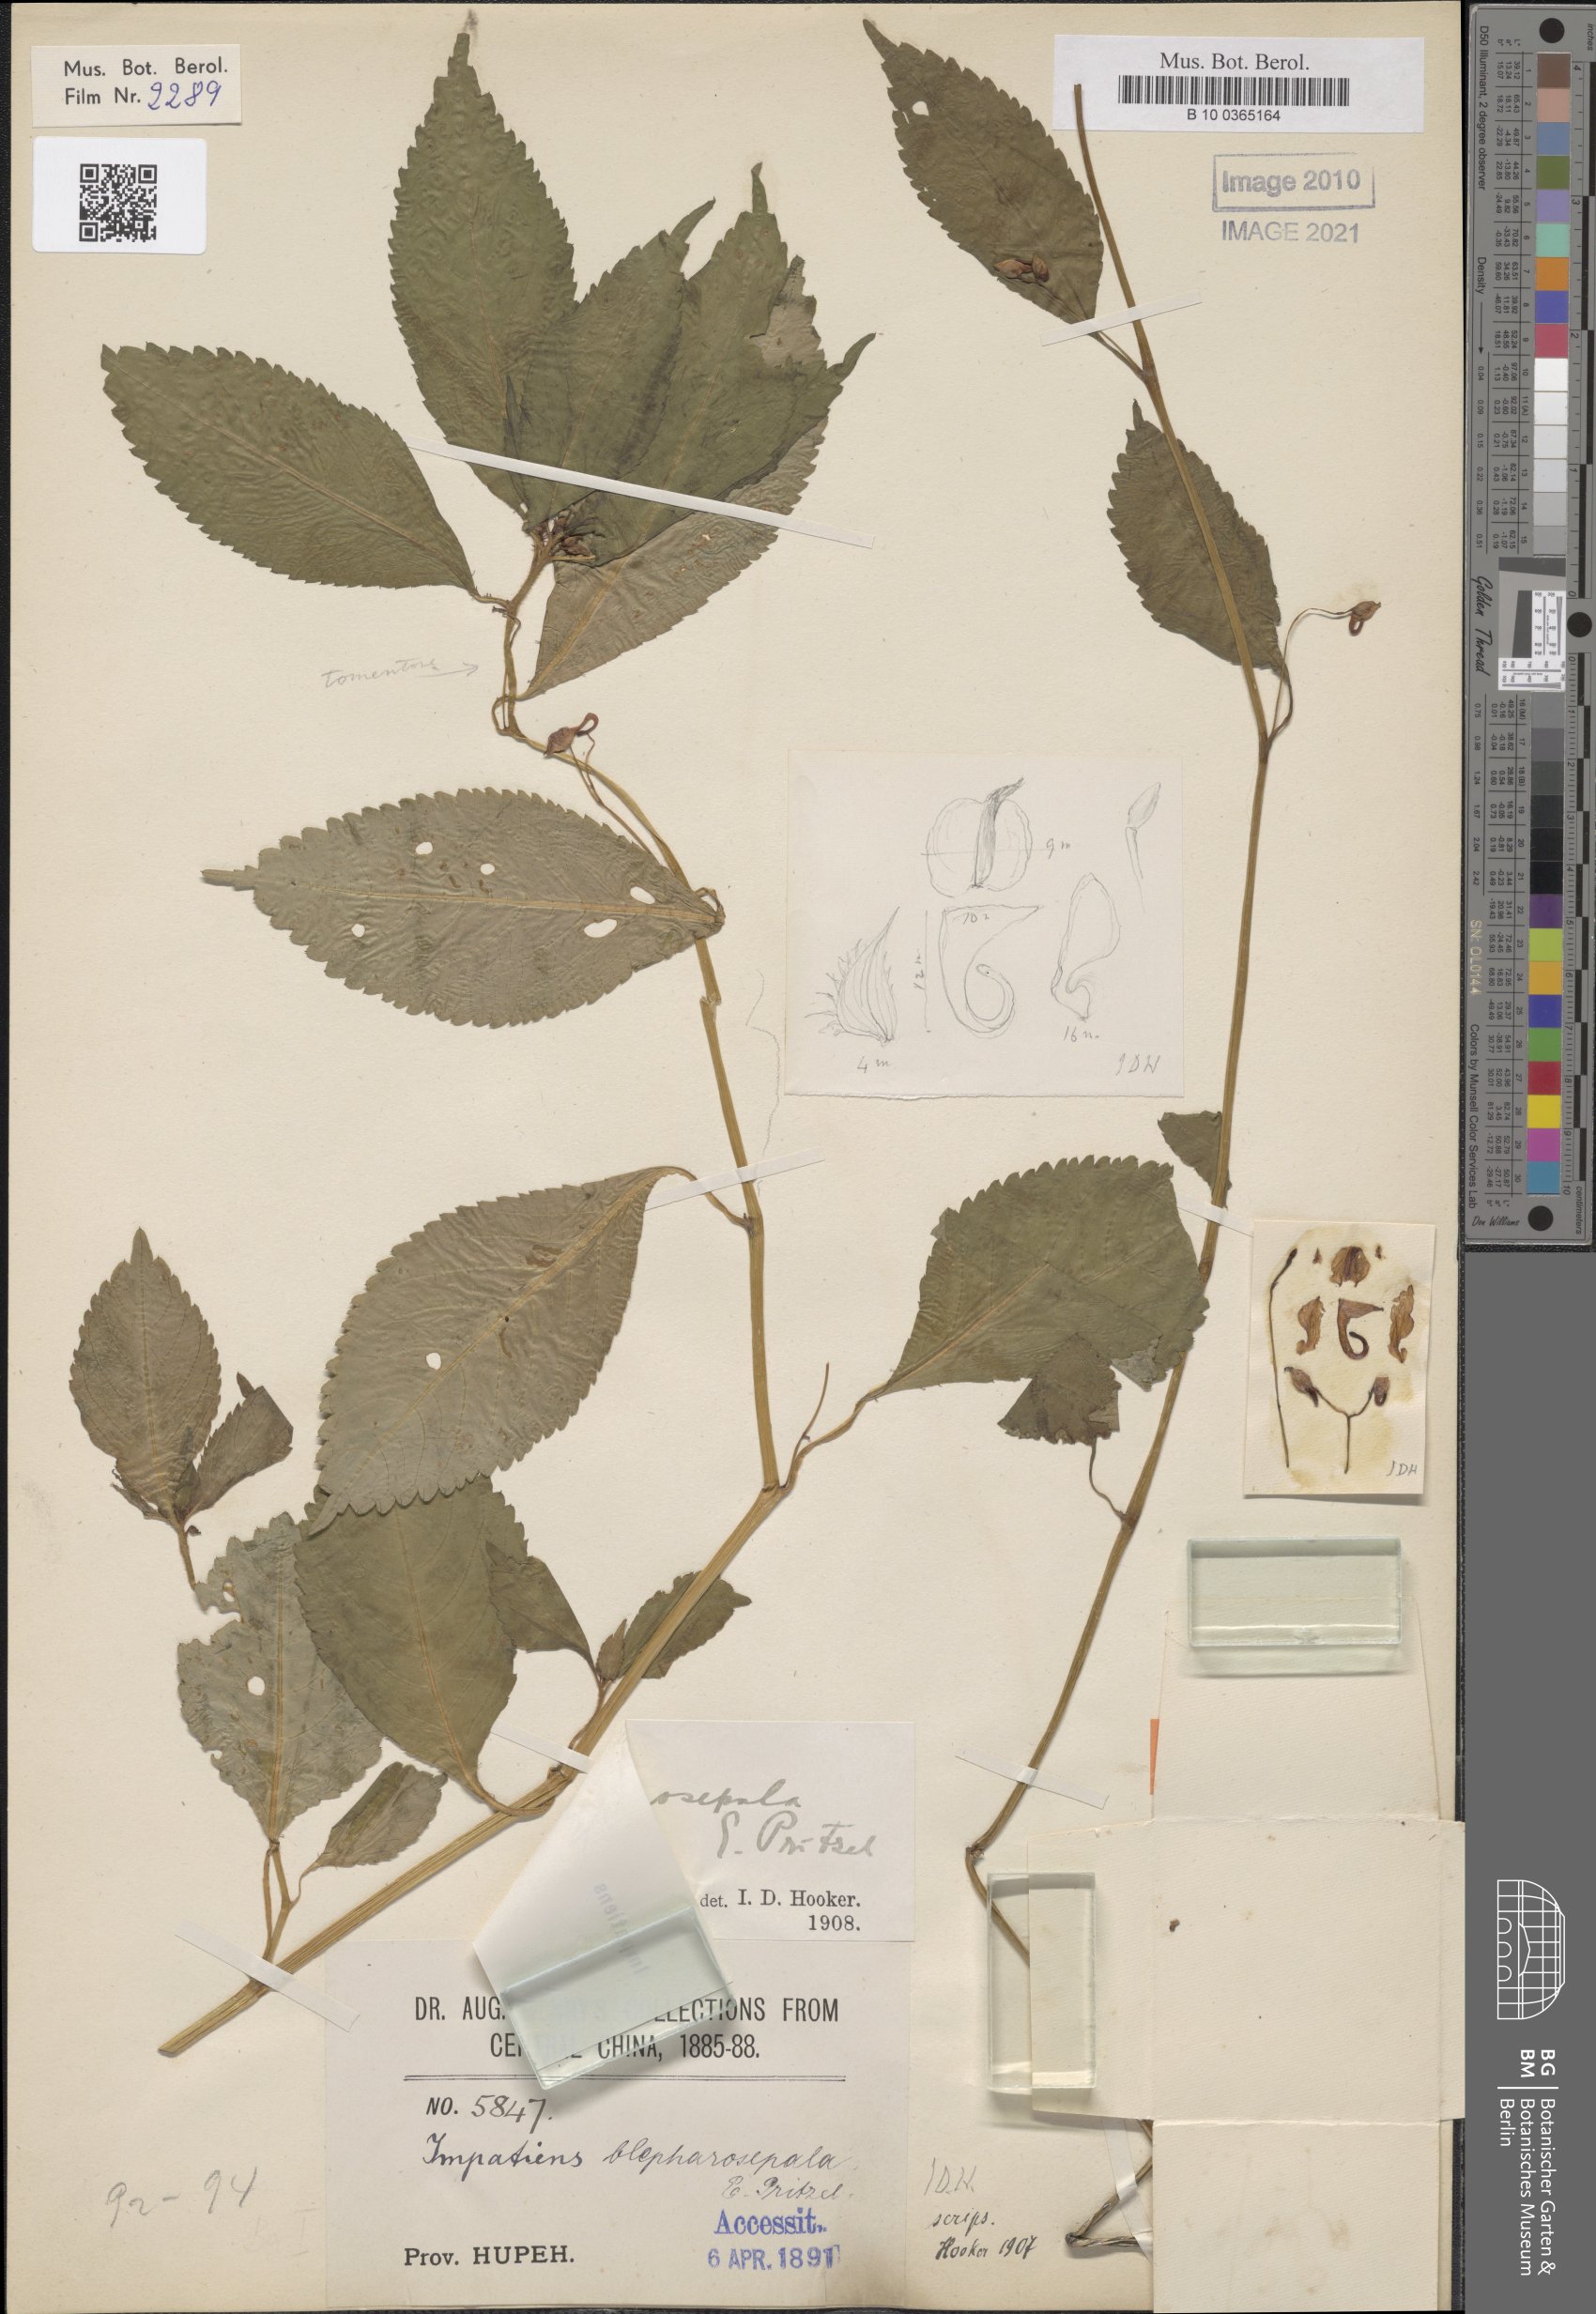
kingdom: Plantae
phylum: Tracheophyta
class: Magnoliopsida
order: Ericales
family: Balsaminaceae
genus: Impatiens
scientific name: Impatiens blepharosepala
